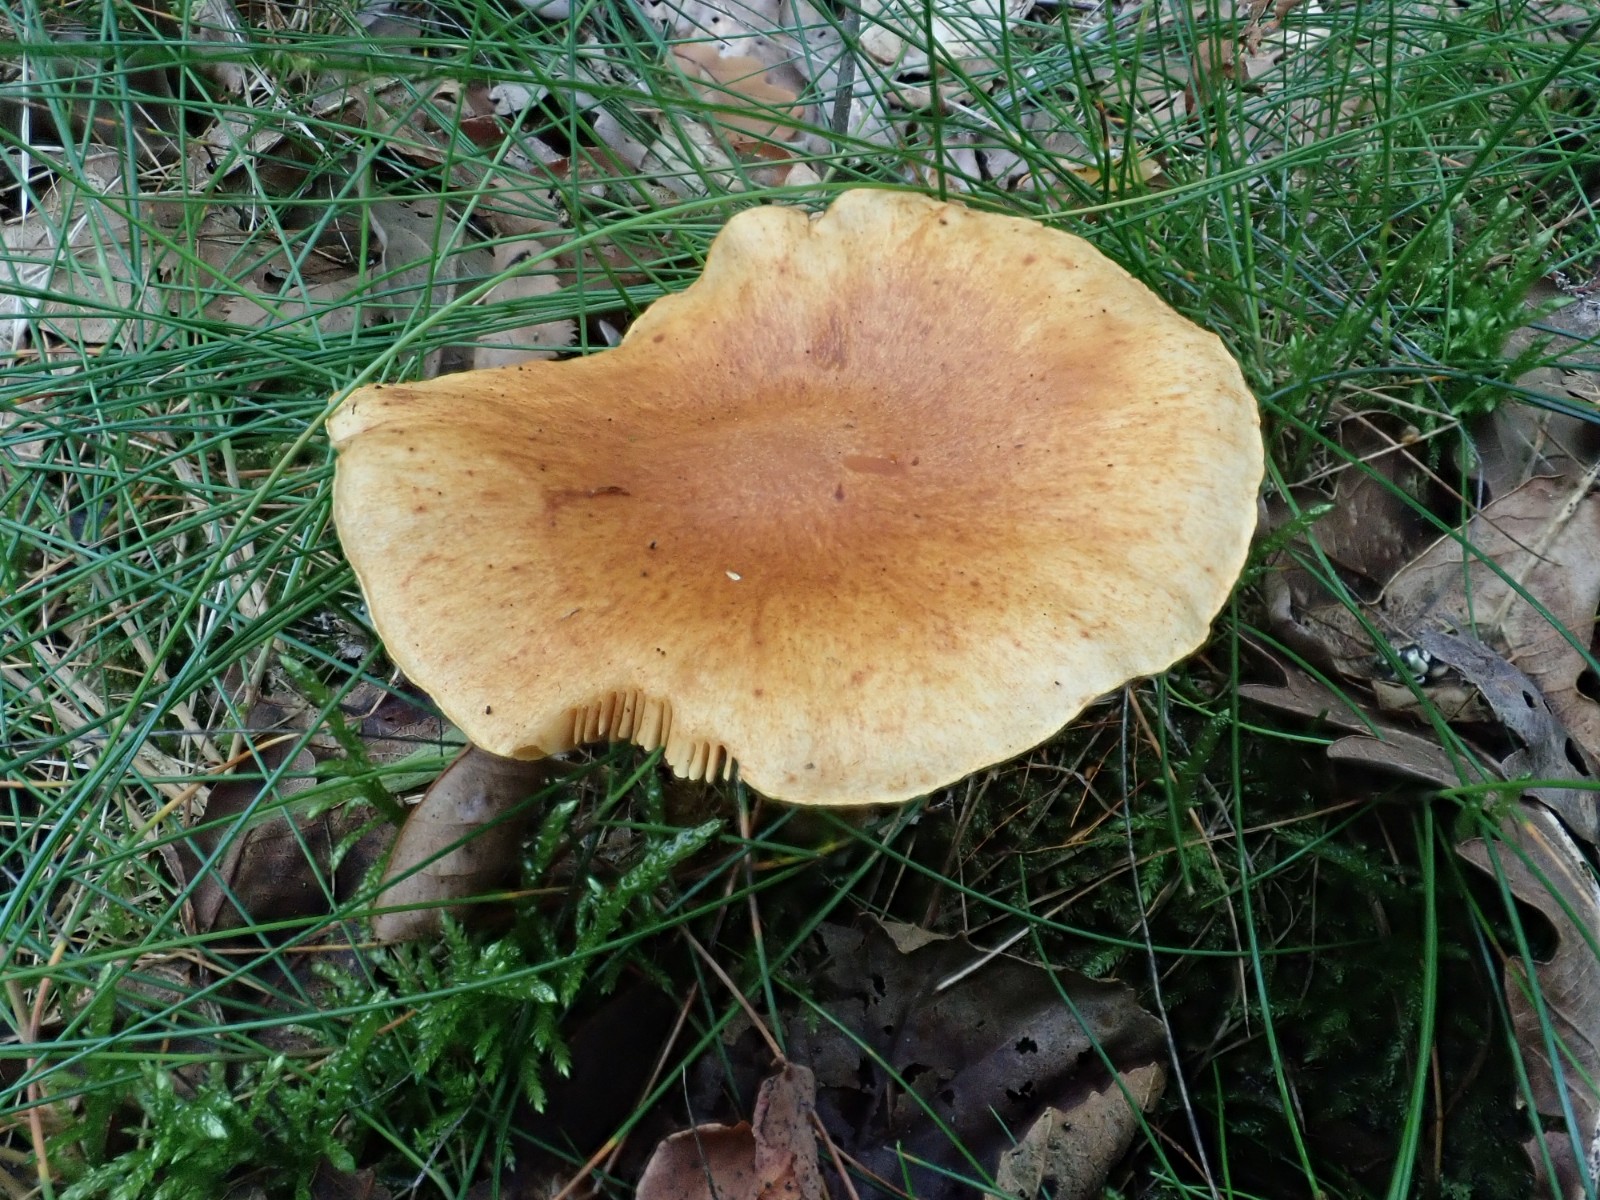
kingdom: Fungi
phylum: Basidiomycota
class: Agaricomycetes
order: Agaricales
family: Hymenogastraceae
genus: Gymnopilus
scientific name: Gymnopilus penetrans
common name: plettet flammehat
